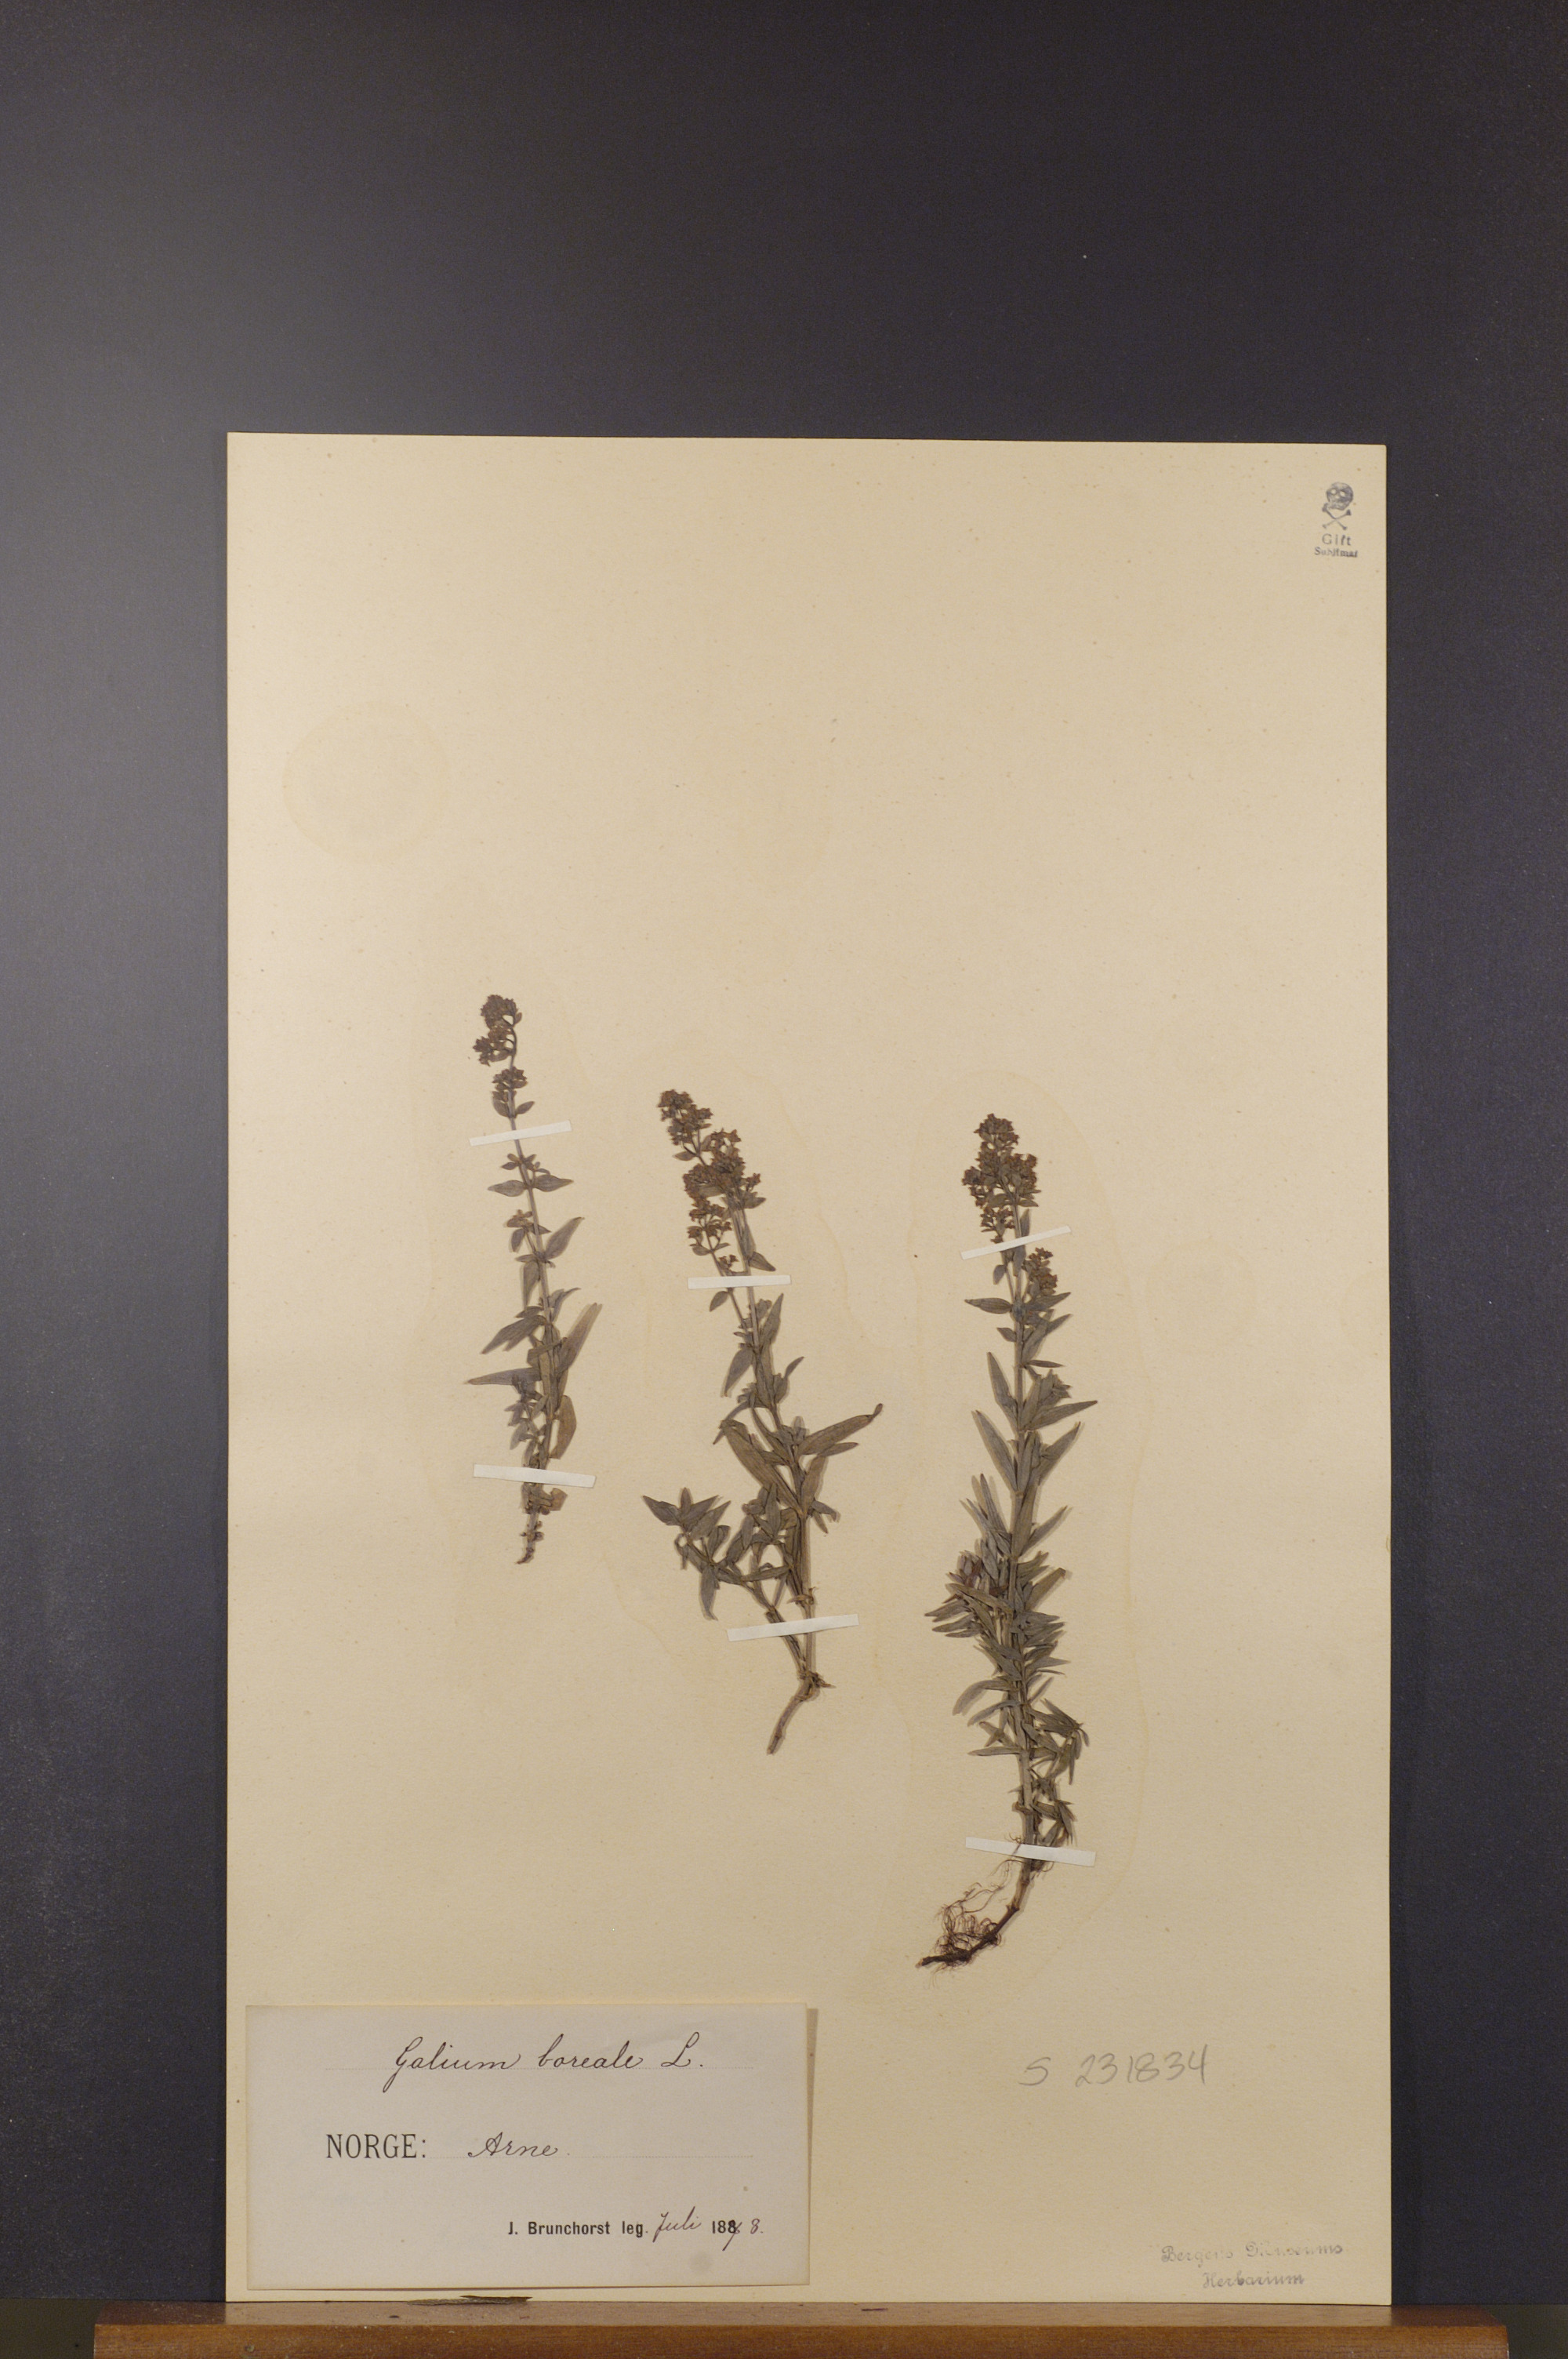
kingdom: Plantae
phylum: Tracheophyta
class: Magnoliopsida
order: Gentianales
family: Rubiaceae
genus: Galium
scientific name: Galium boreale
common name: Northern bedstraw
